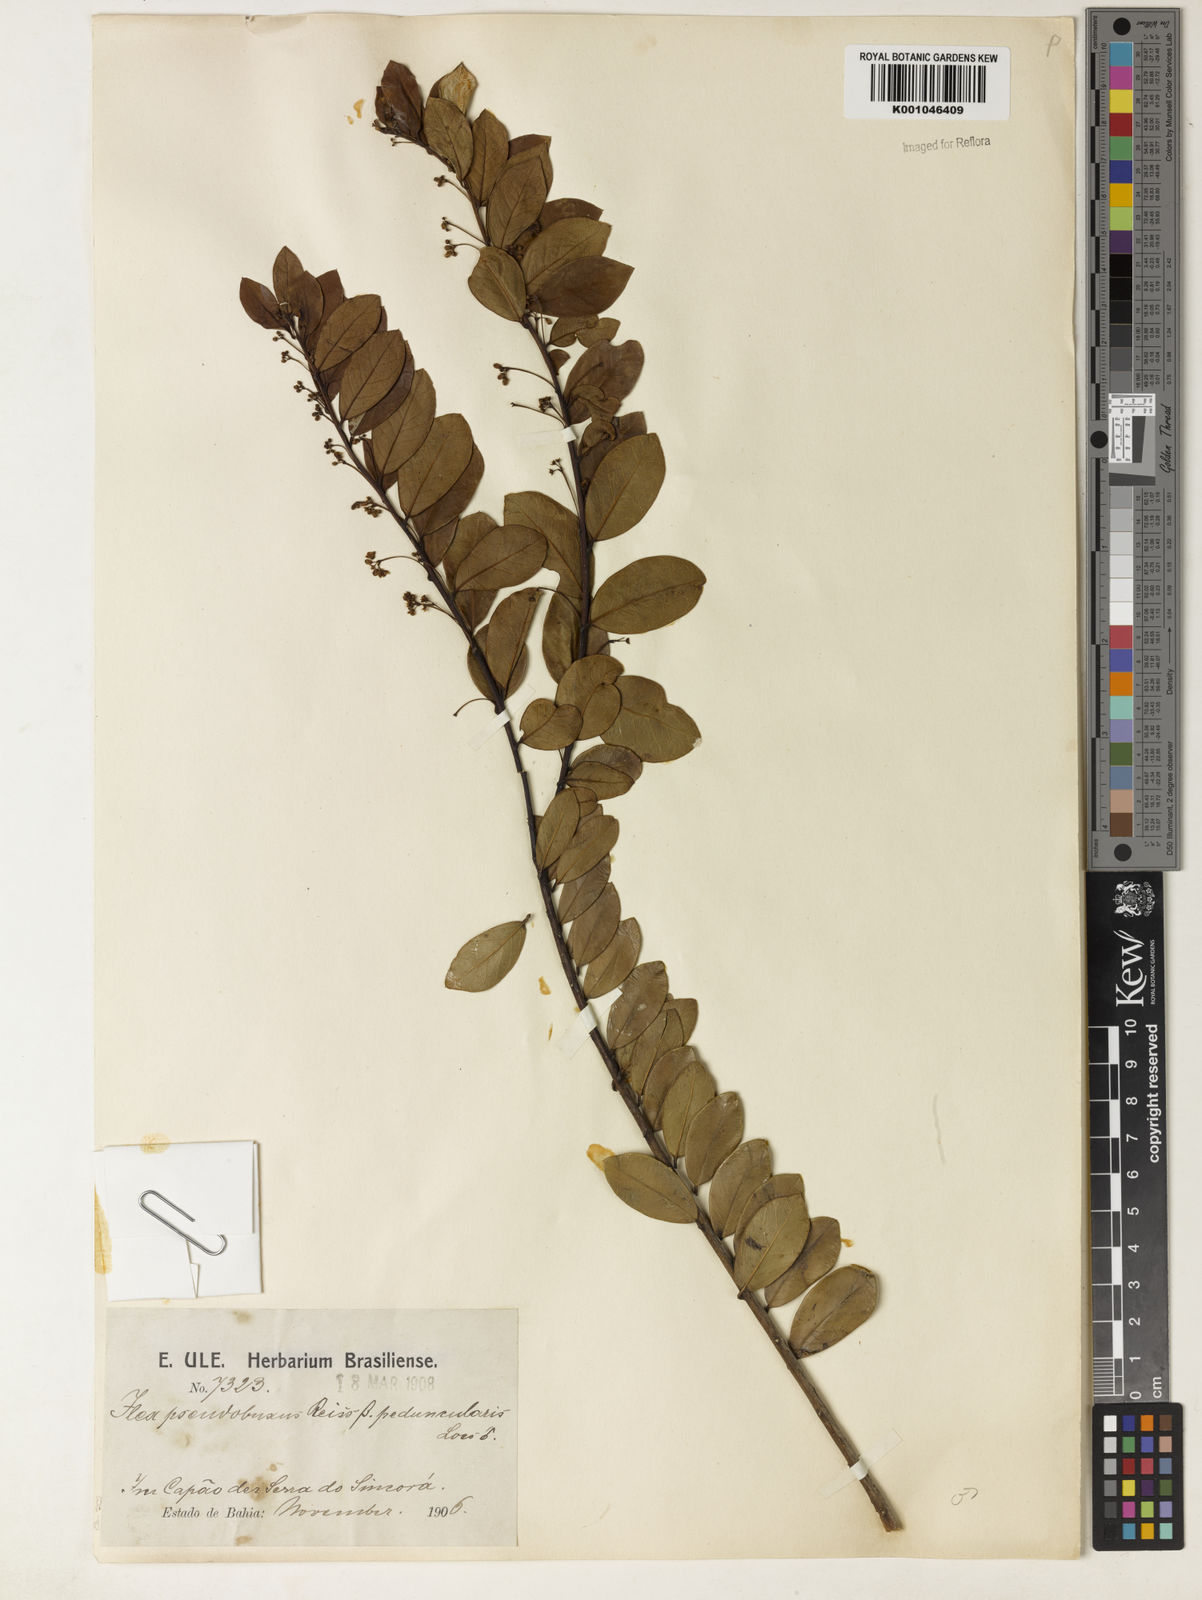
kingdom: Plantae
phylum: Tracheophyta
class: Magnoliopsida
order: Aquifoliales
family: Aquifoliaceae
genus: Ilex
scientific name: Ilex pseudobuxus
